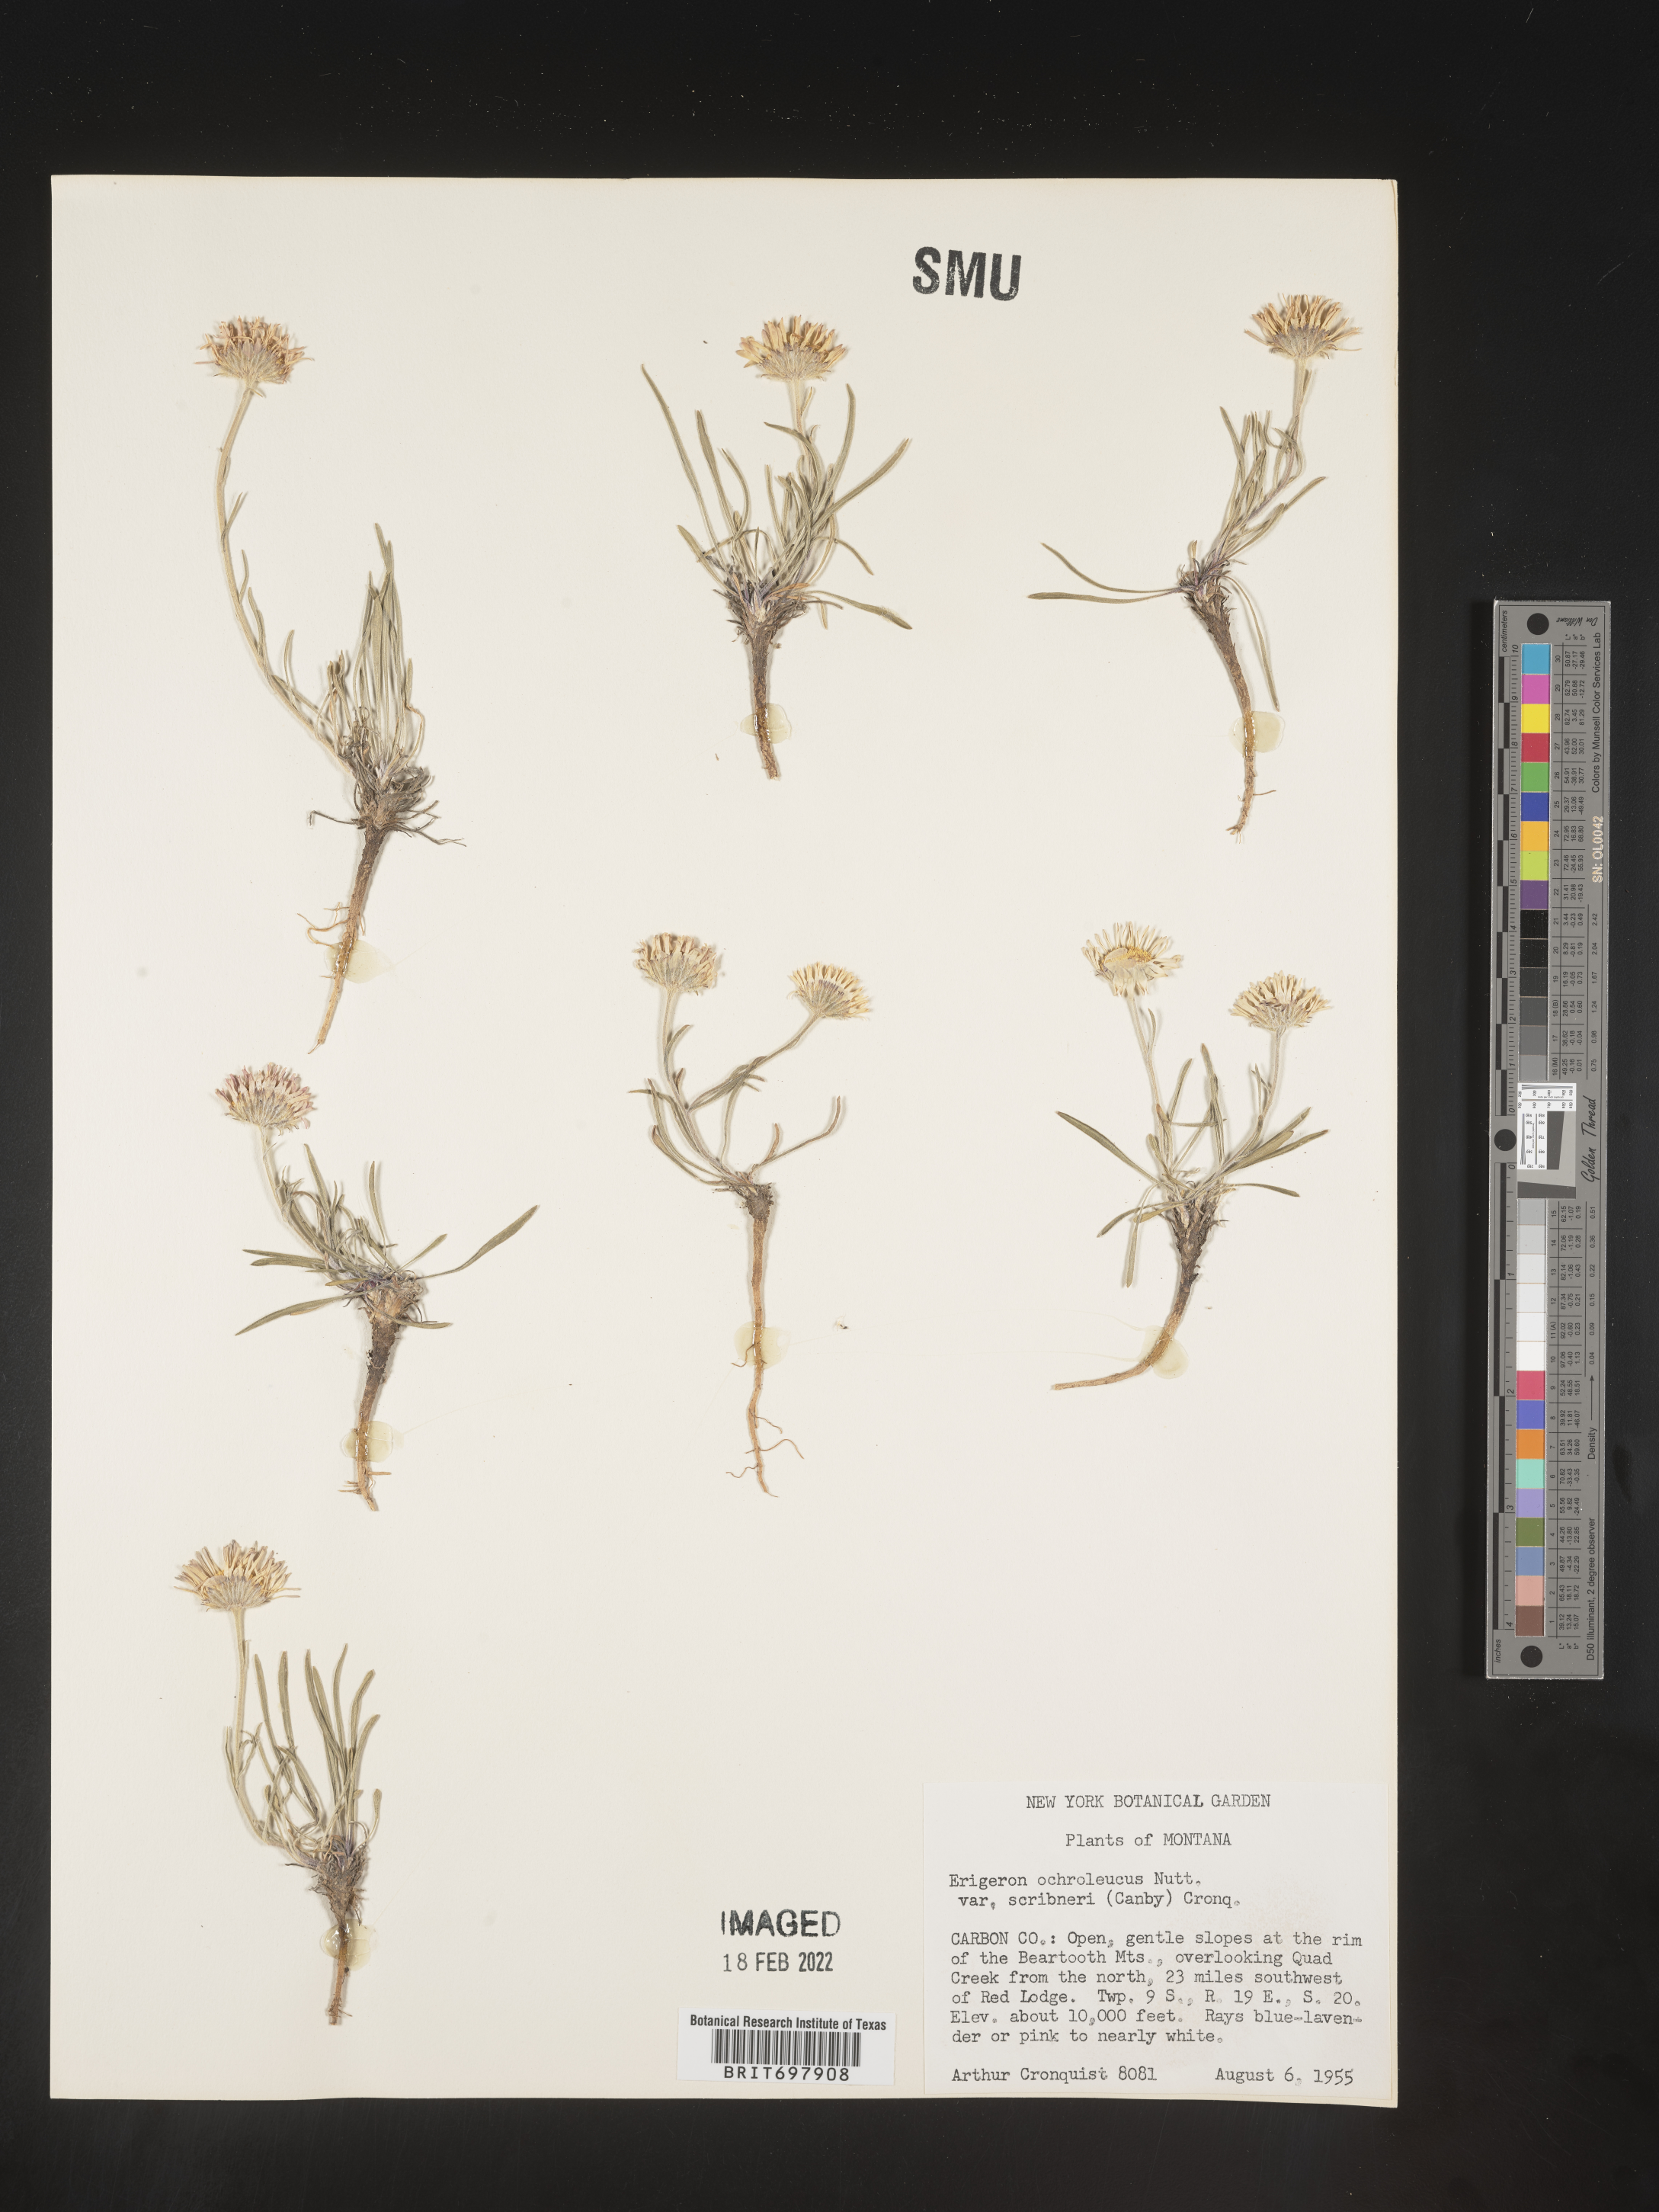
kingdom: Plantae
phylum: Tracheophyta
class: Magnoliopsida
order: Asterales
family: Asteraceae
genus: Erigeron
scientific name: Erigeron ochroleucus
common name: Buff fleabane
